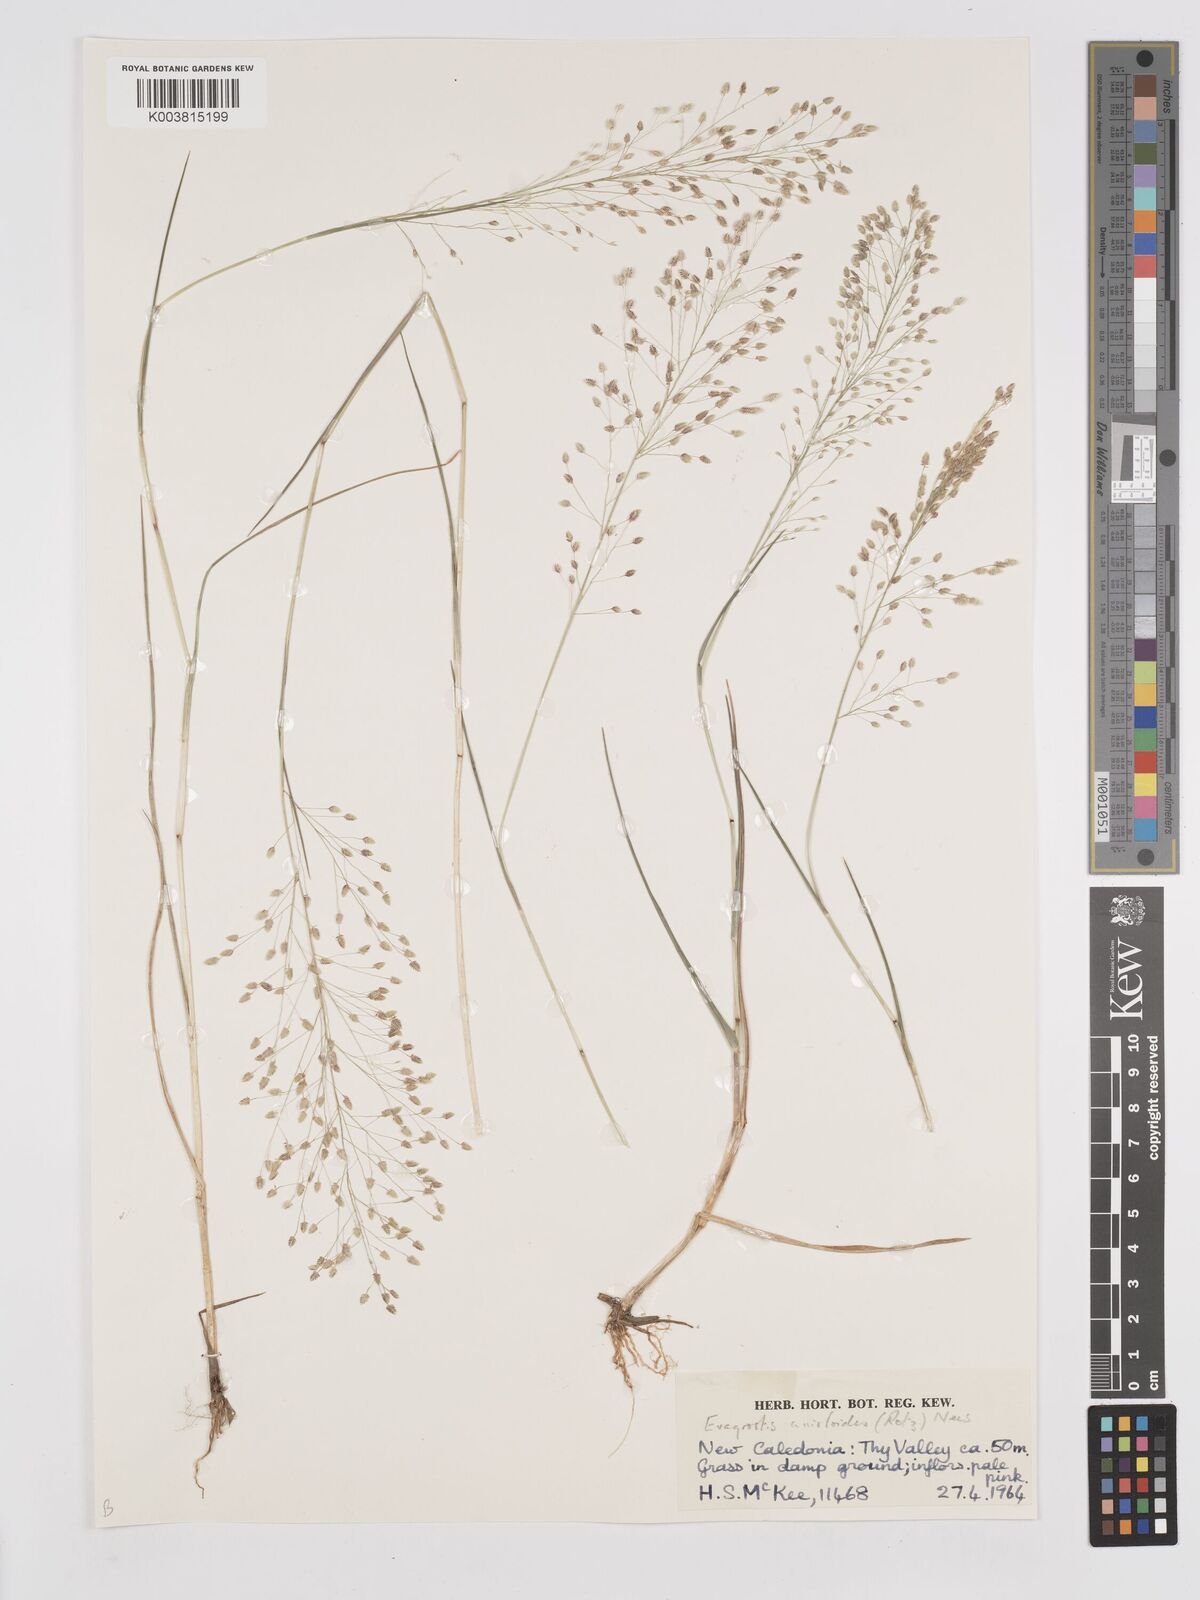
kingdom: Plantae
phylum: Tracheophyta
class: Liliopsida
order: Poales
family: Poaceae
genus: Eragrostis
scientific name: Eragrostis unioloides
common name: Chinese lovegrass
